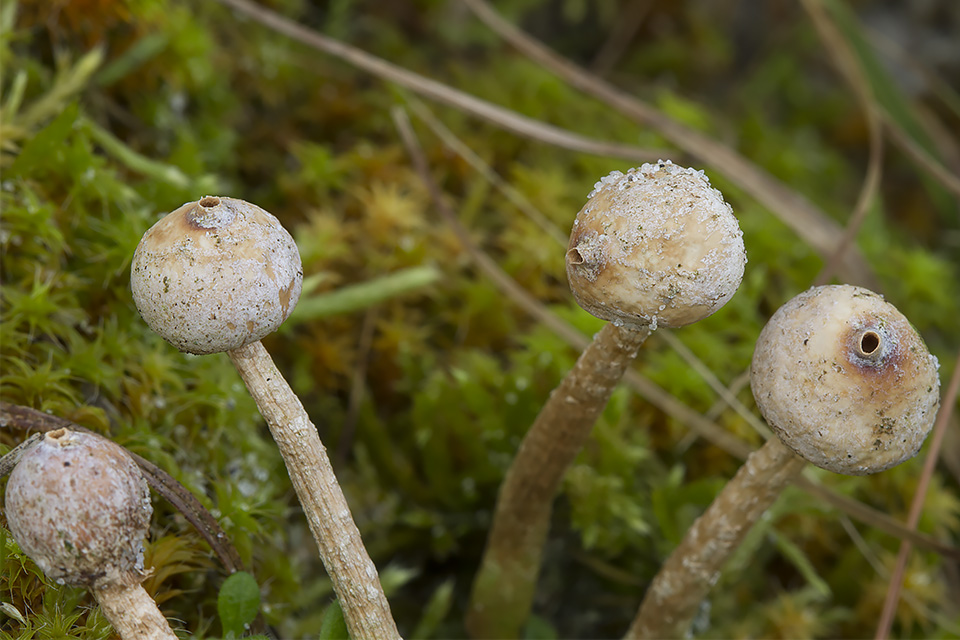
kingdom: Fungi
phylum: Basidiomycota
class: Agaricomycetes
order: Agaricales
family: Agaricaceae
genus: Tulostoma
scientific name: Tulostoma brumale
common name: vinter-stilkbovist
